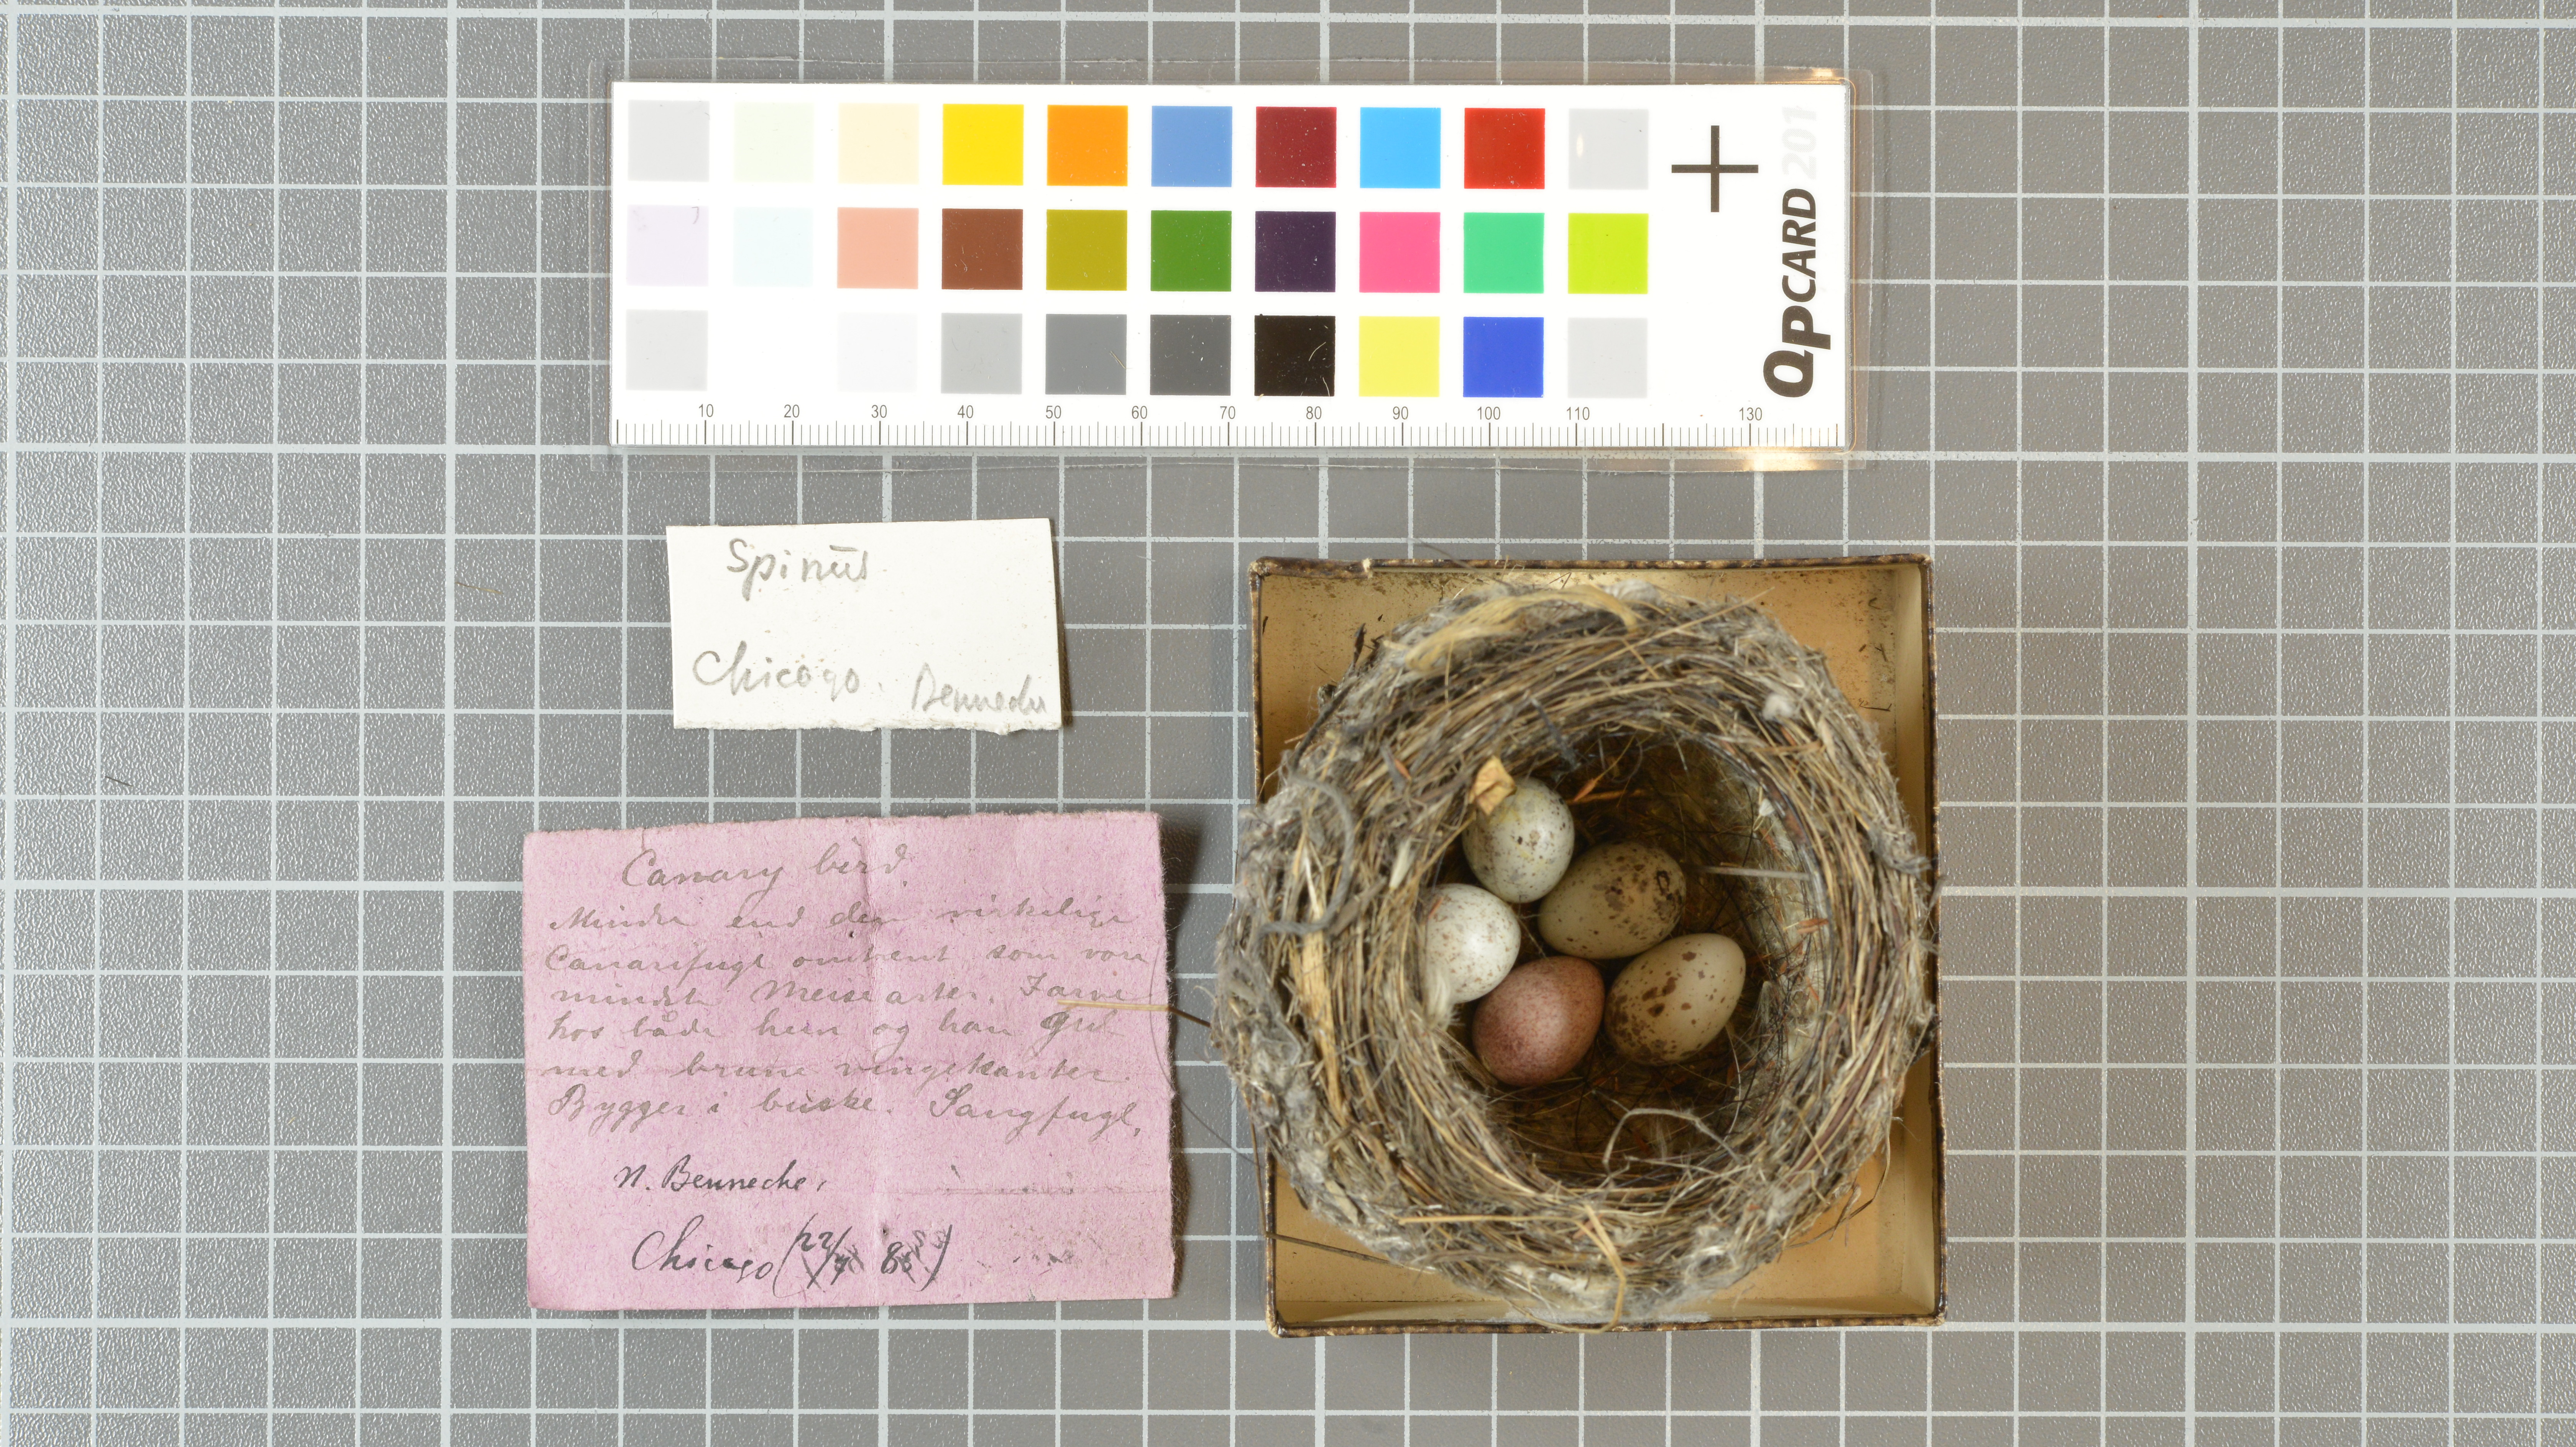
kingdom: Animalia
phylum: Chordata
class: Aves
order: Passeriformes
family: Fringillidae
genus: Serinus
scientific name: Serinus canaria
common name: Atlantic canary
